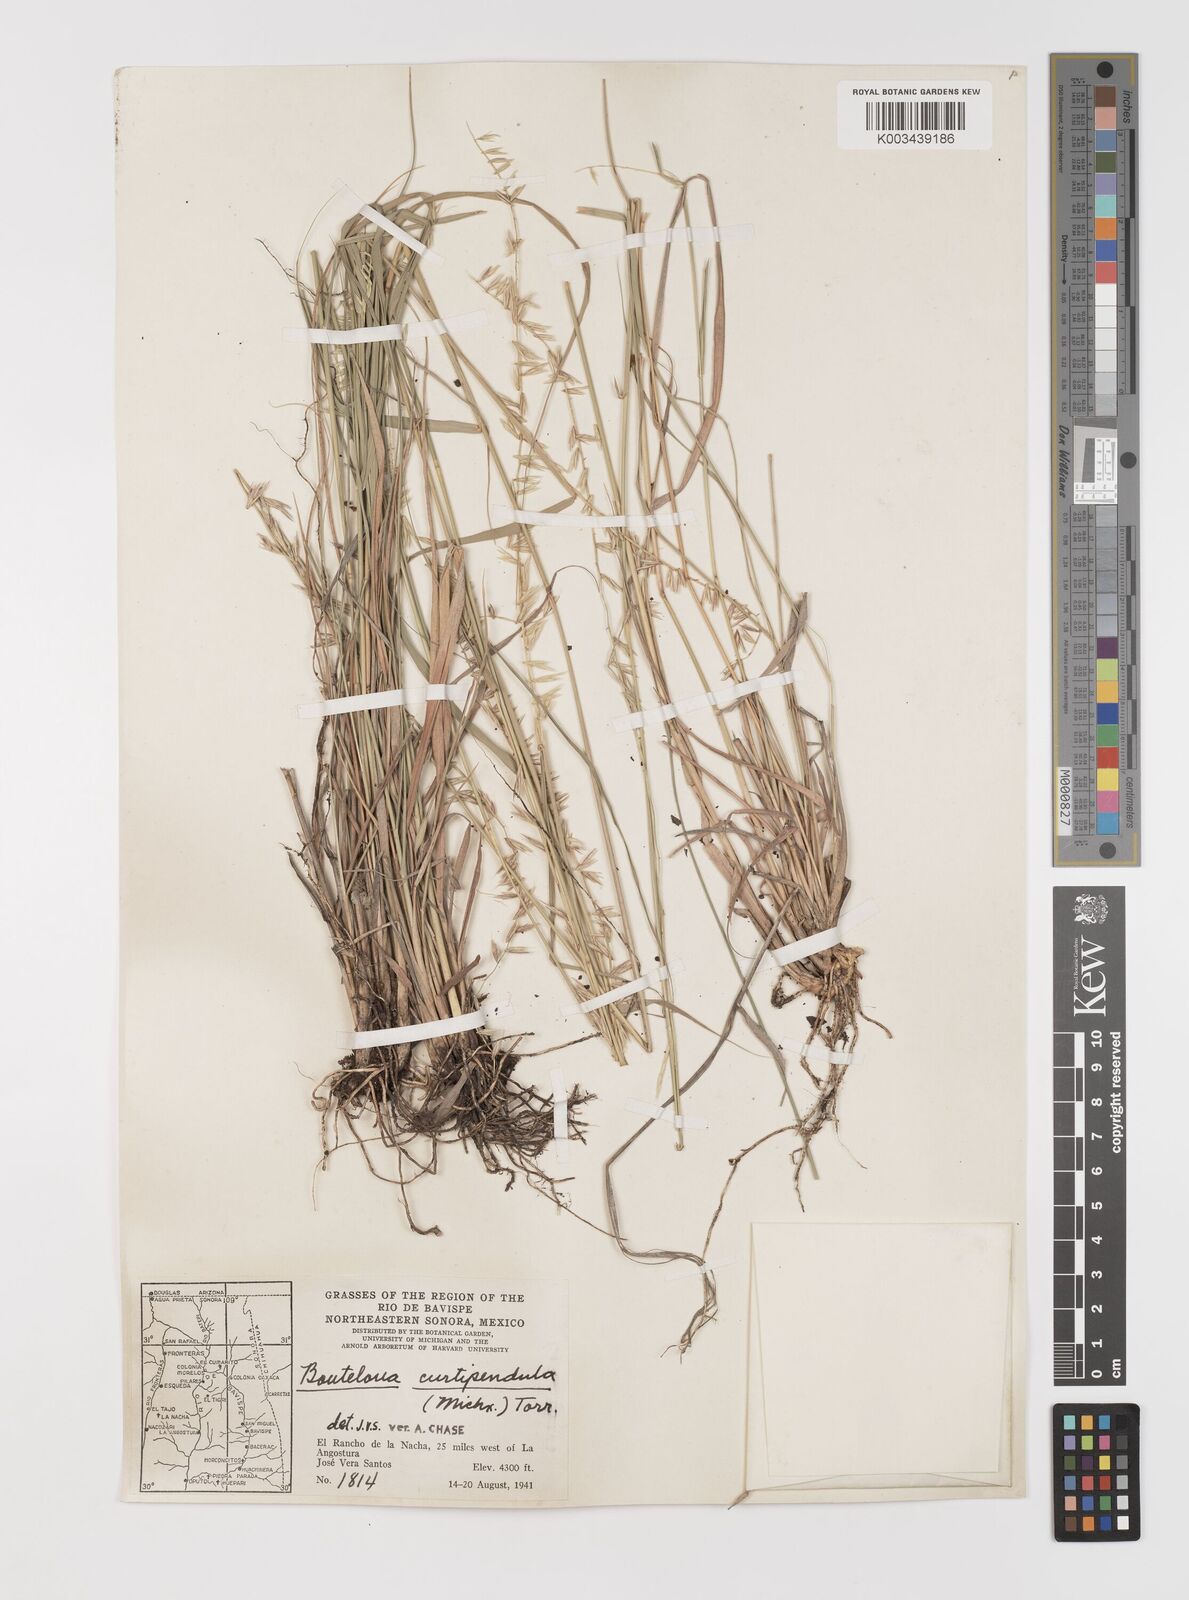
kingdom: Plantae
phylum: Tracheophyta
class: Liliopsida
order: Poales
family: Poaceae
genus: Bouteloua
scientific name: Bouteloua curtipendula
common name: Side-oats grama
